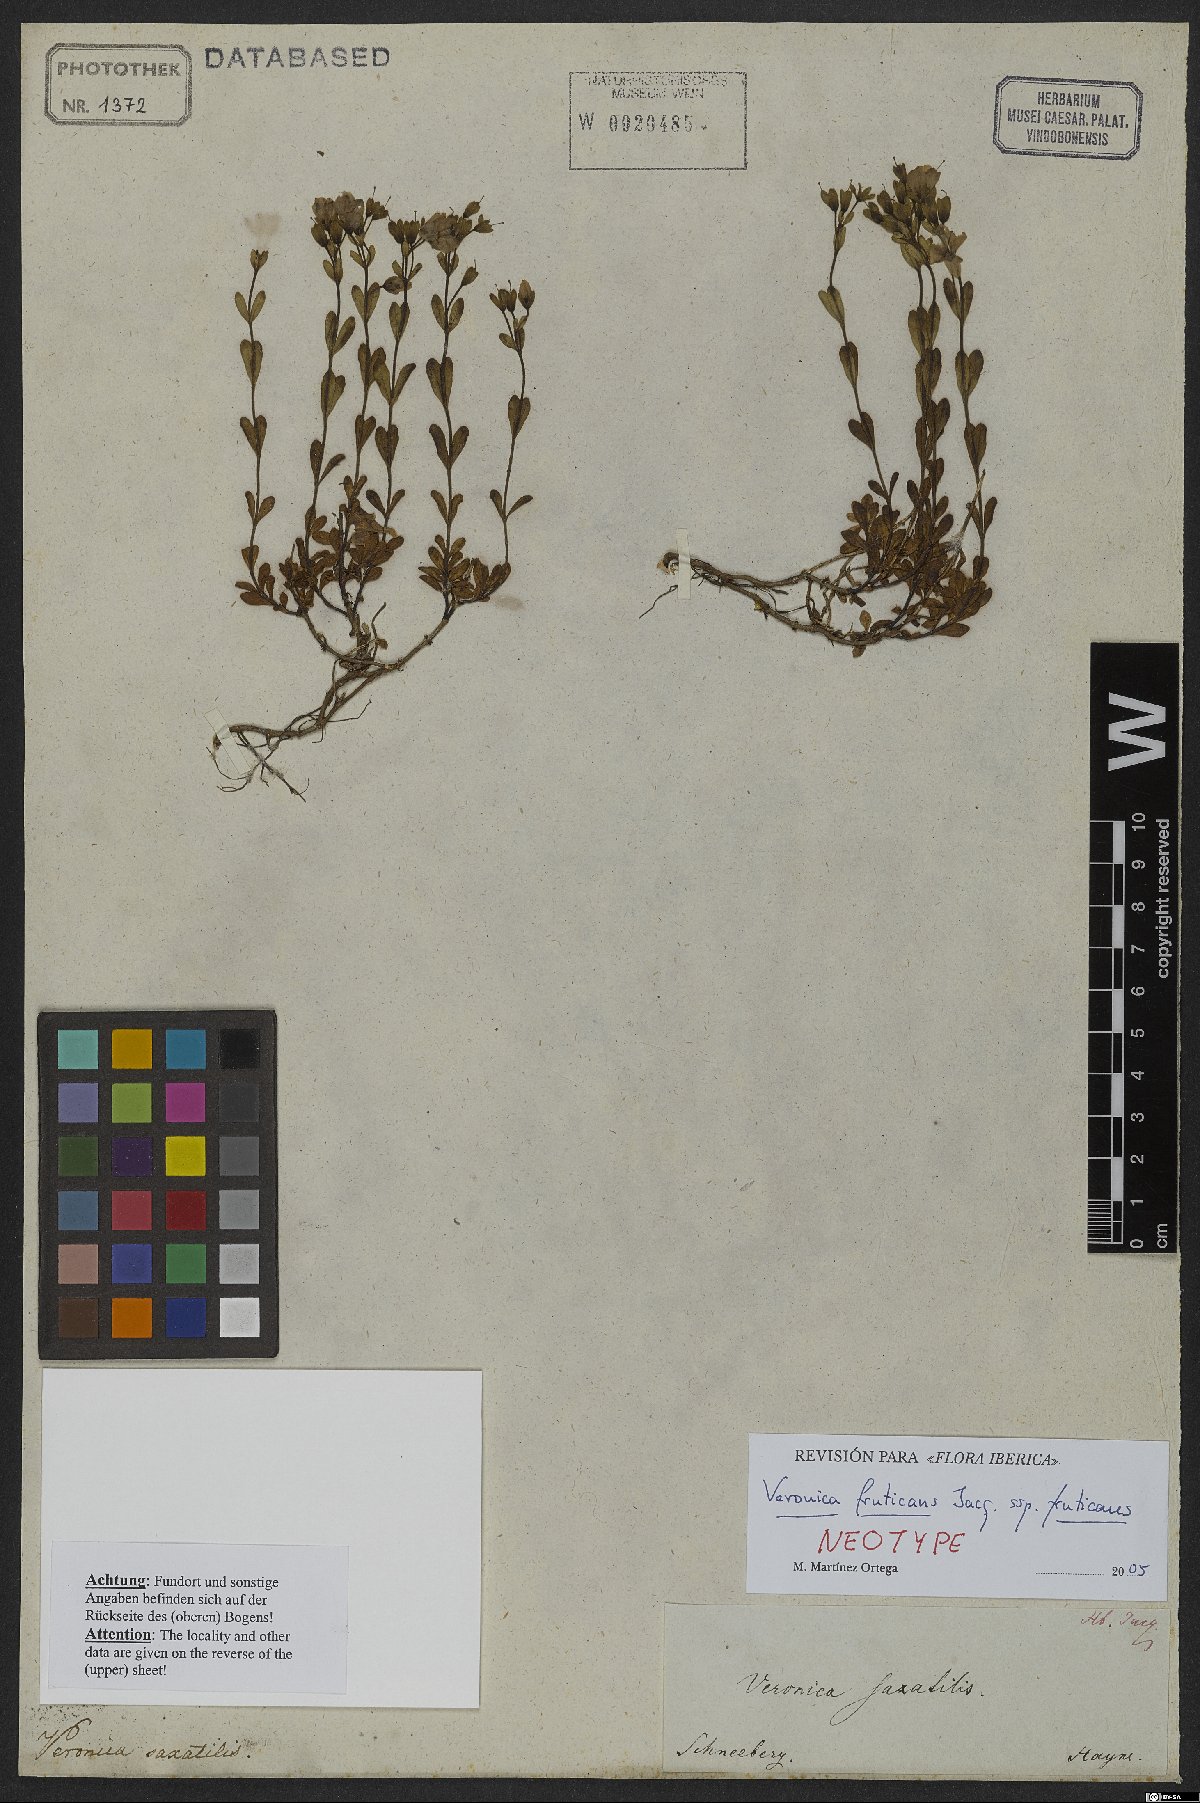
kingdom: Plantae
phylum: Tracheophyta
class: Magnoliopsida
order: Lamiales
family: Plantaginaceae
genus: Veronica
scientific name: Veronica fruticans
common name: Rock speedwell
